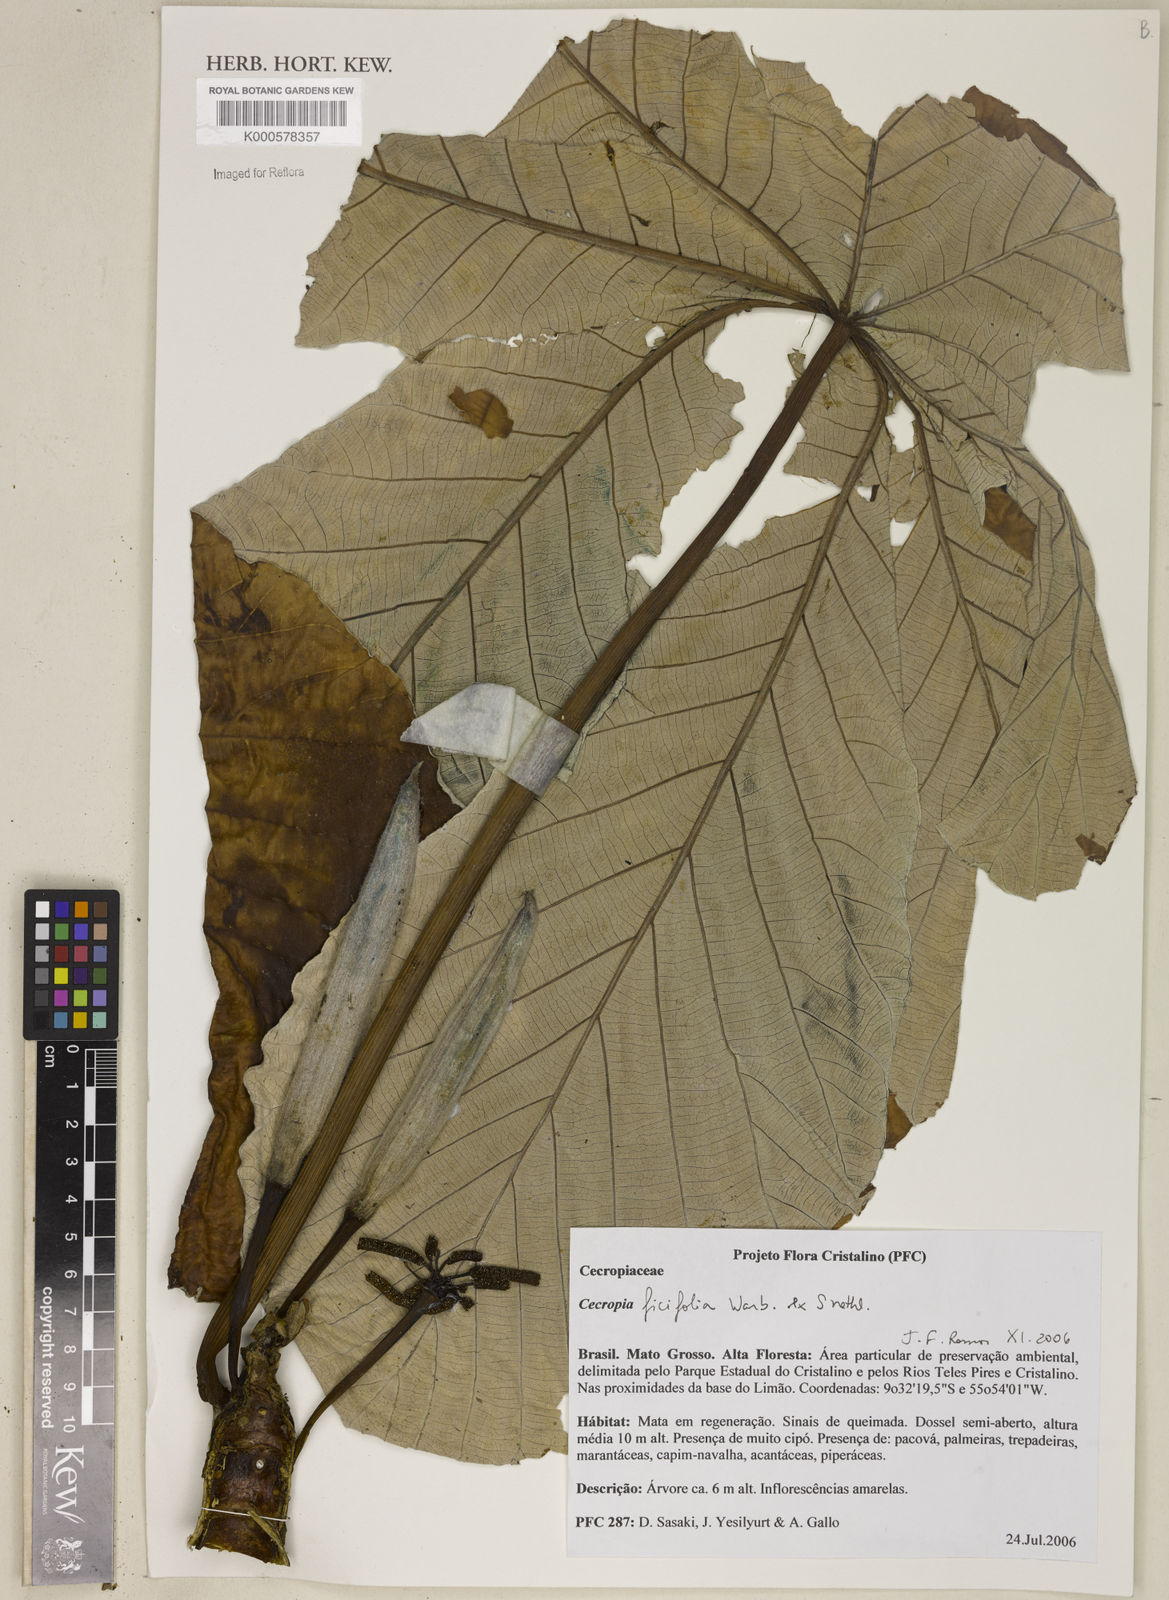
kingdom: Plantae
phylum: Tracheophyta
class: Magnoliopsida
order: Rosales
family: Urticaceae
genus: Cecropia
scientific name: Cecropia ficifolia
